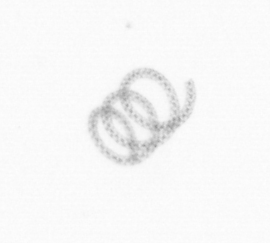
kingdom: Chromista
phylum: Ochrophyta
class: Bacillariophyceae
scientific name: Bacillariophyceae
